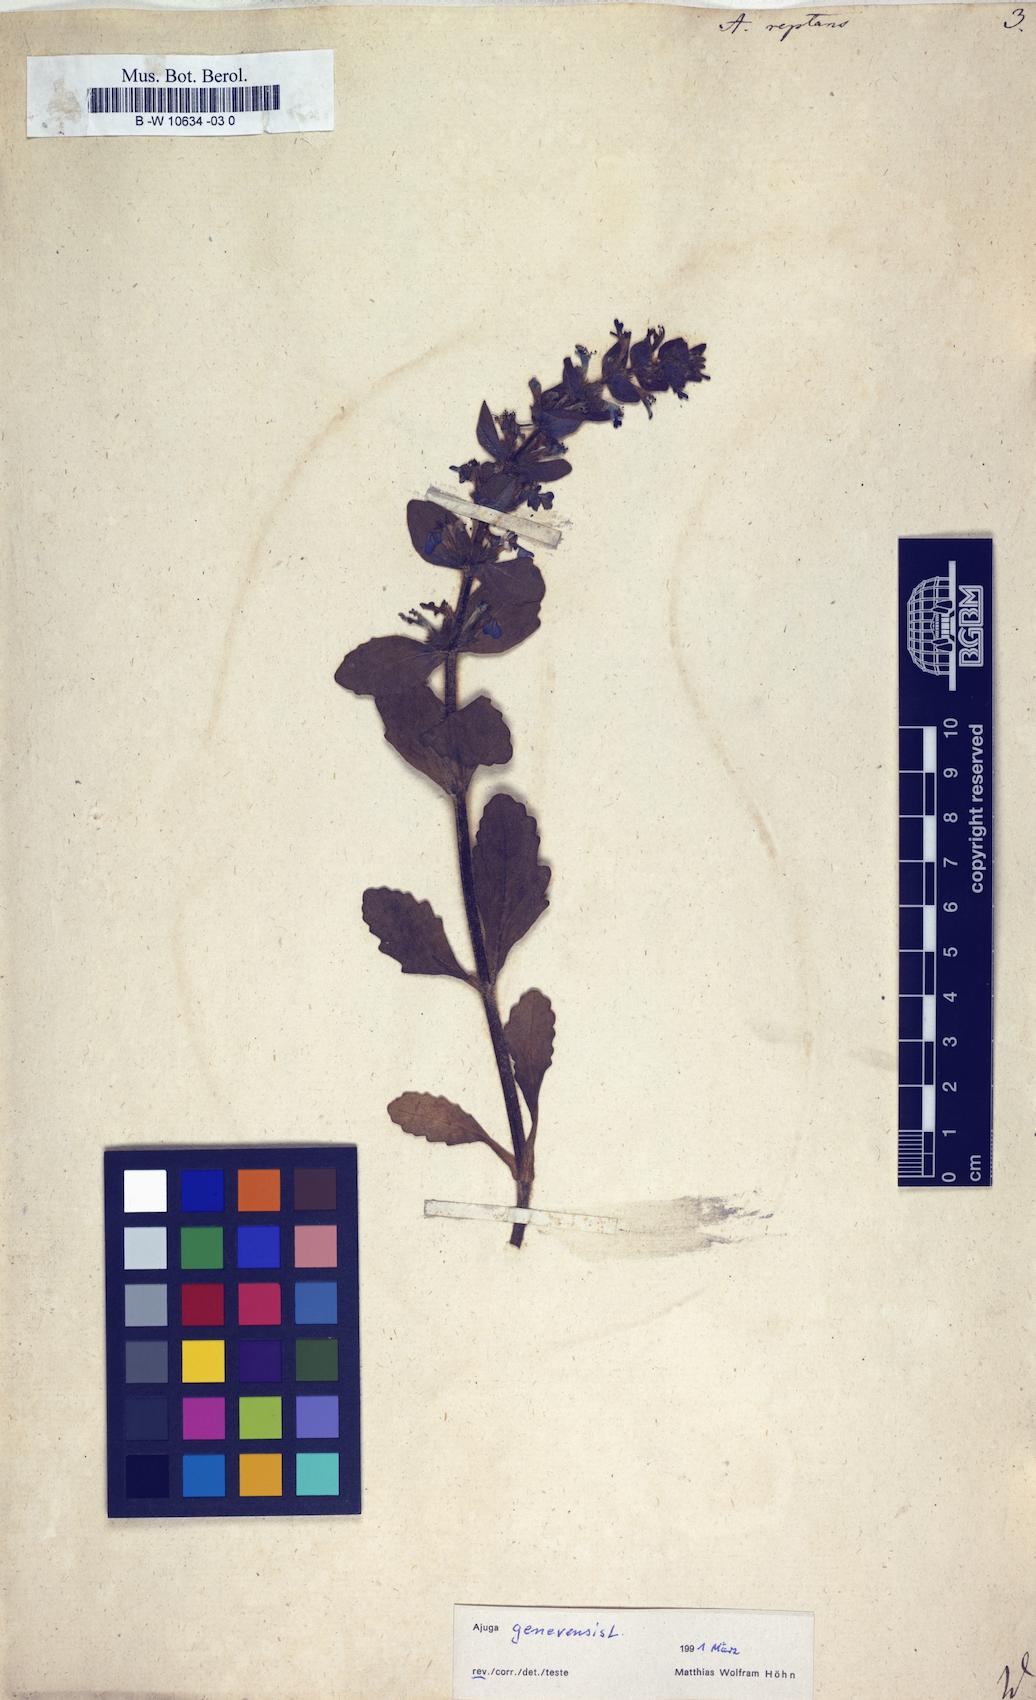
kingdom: Plantae
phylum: Tracheophyta
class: Magnoliopsida
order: Lamiales
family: Lamiaceae
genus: Ajuga
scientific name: Ajuga reptans
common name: Bugle
